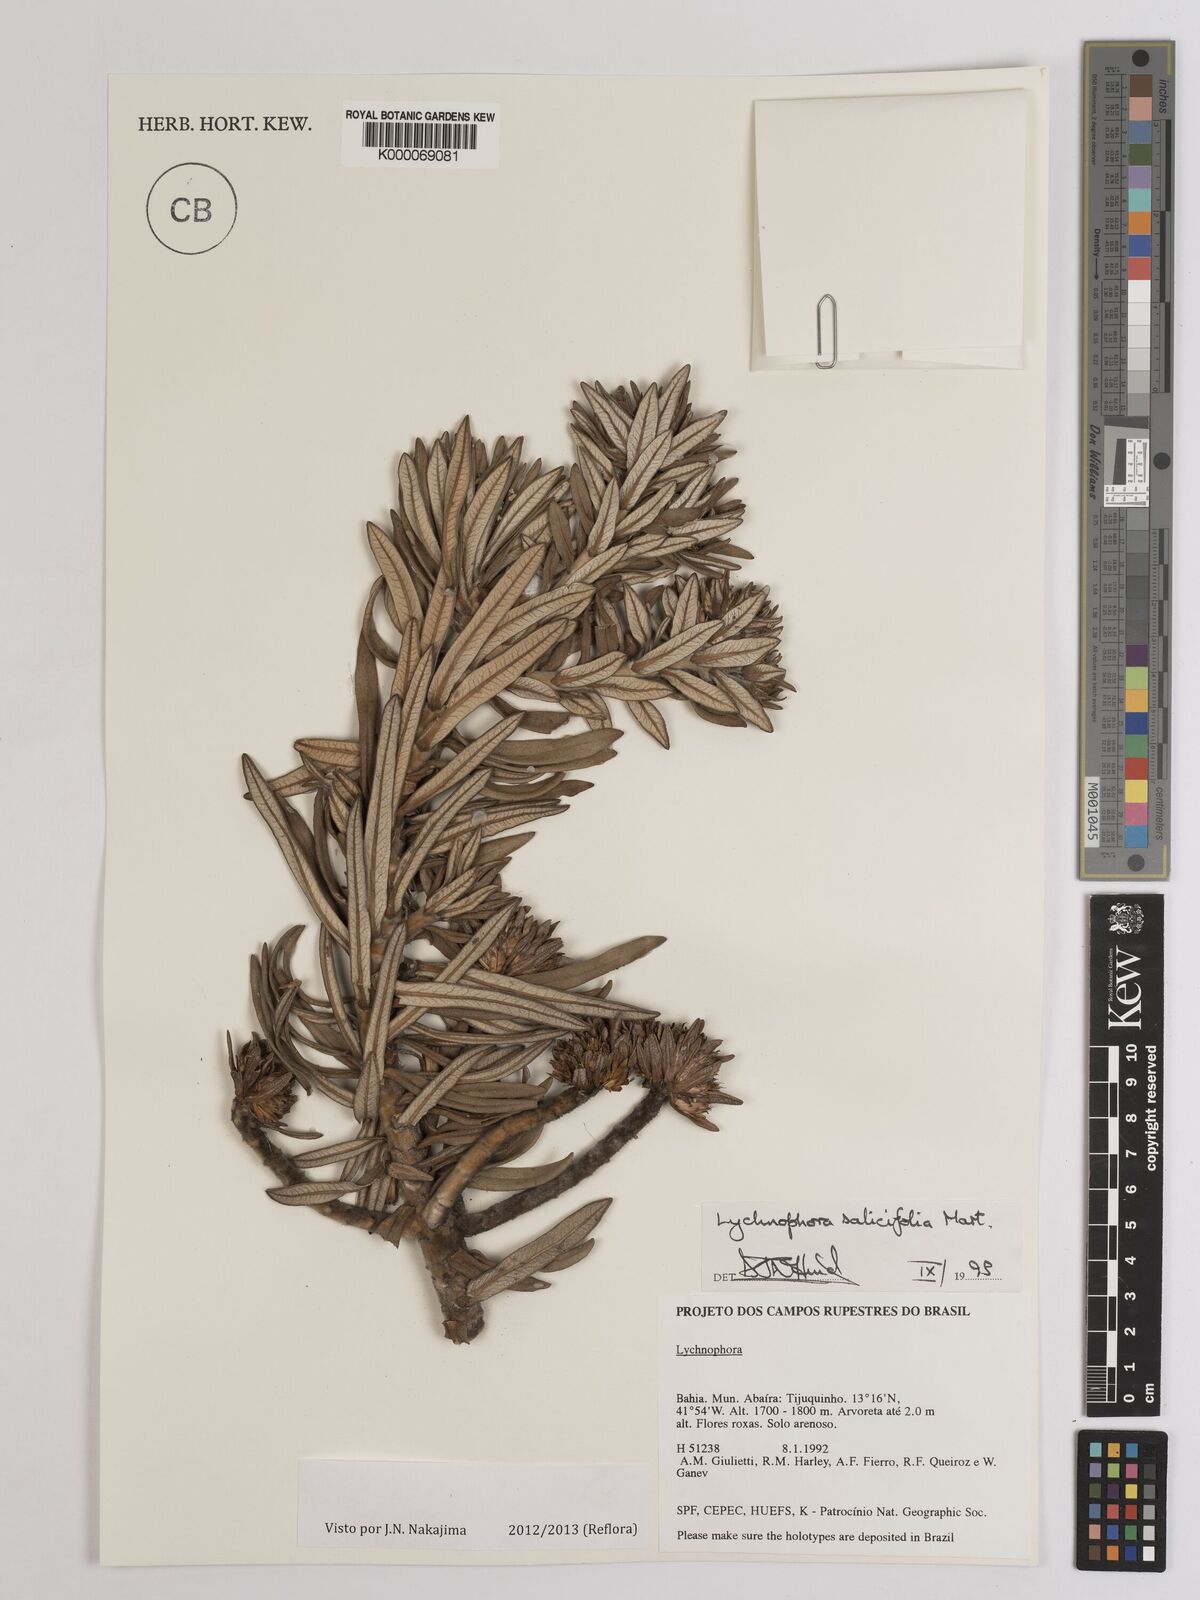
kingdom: Plantae
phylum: Tracheophyta
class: Magnoliopsida
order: Asterales
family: Asteraceae
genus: Lychnophora
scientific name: Lychnophora salicifolia
